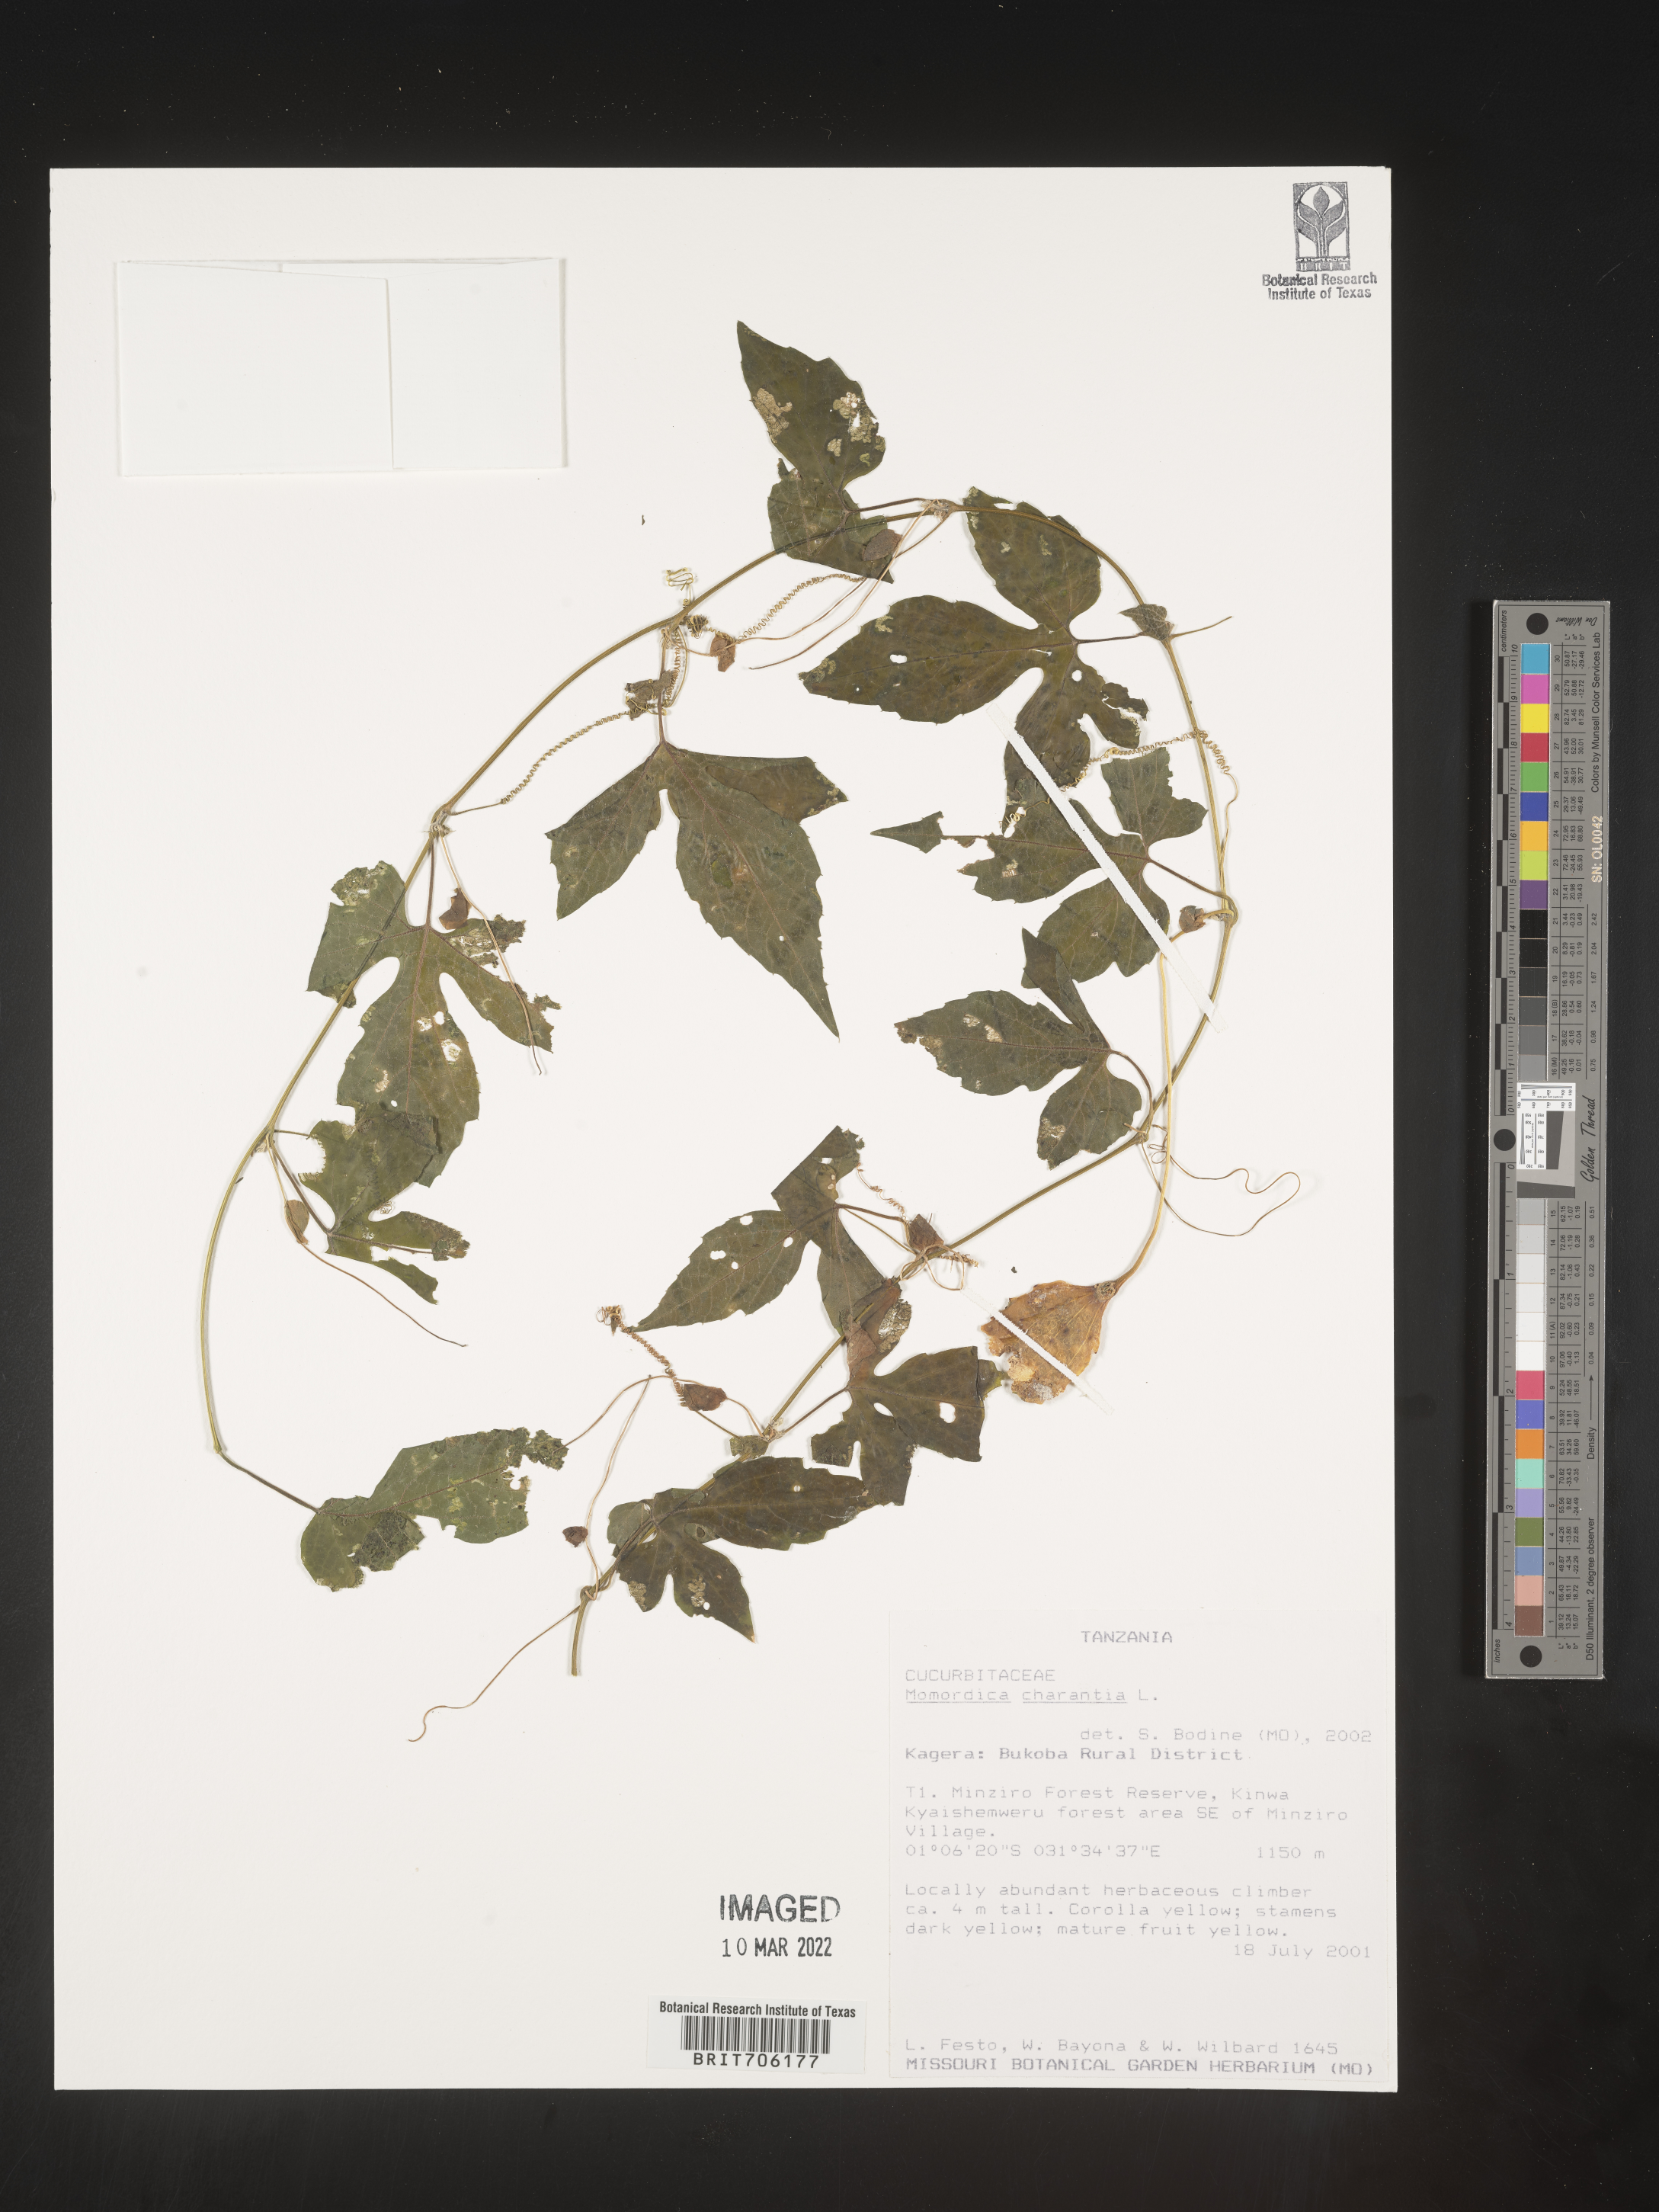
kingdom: Plantae
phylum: Tracheophyta
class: Magnoliopsida
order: Cucurbitales
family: Cucurbitaceae
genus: Momordica
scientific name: Momordica
